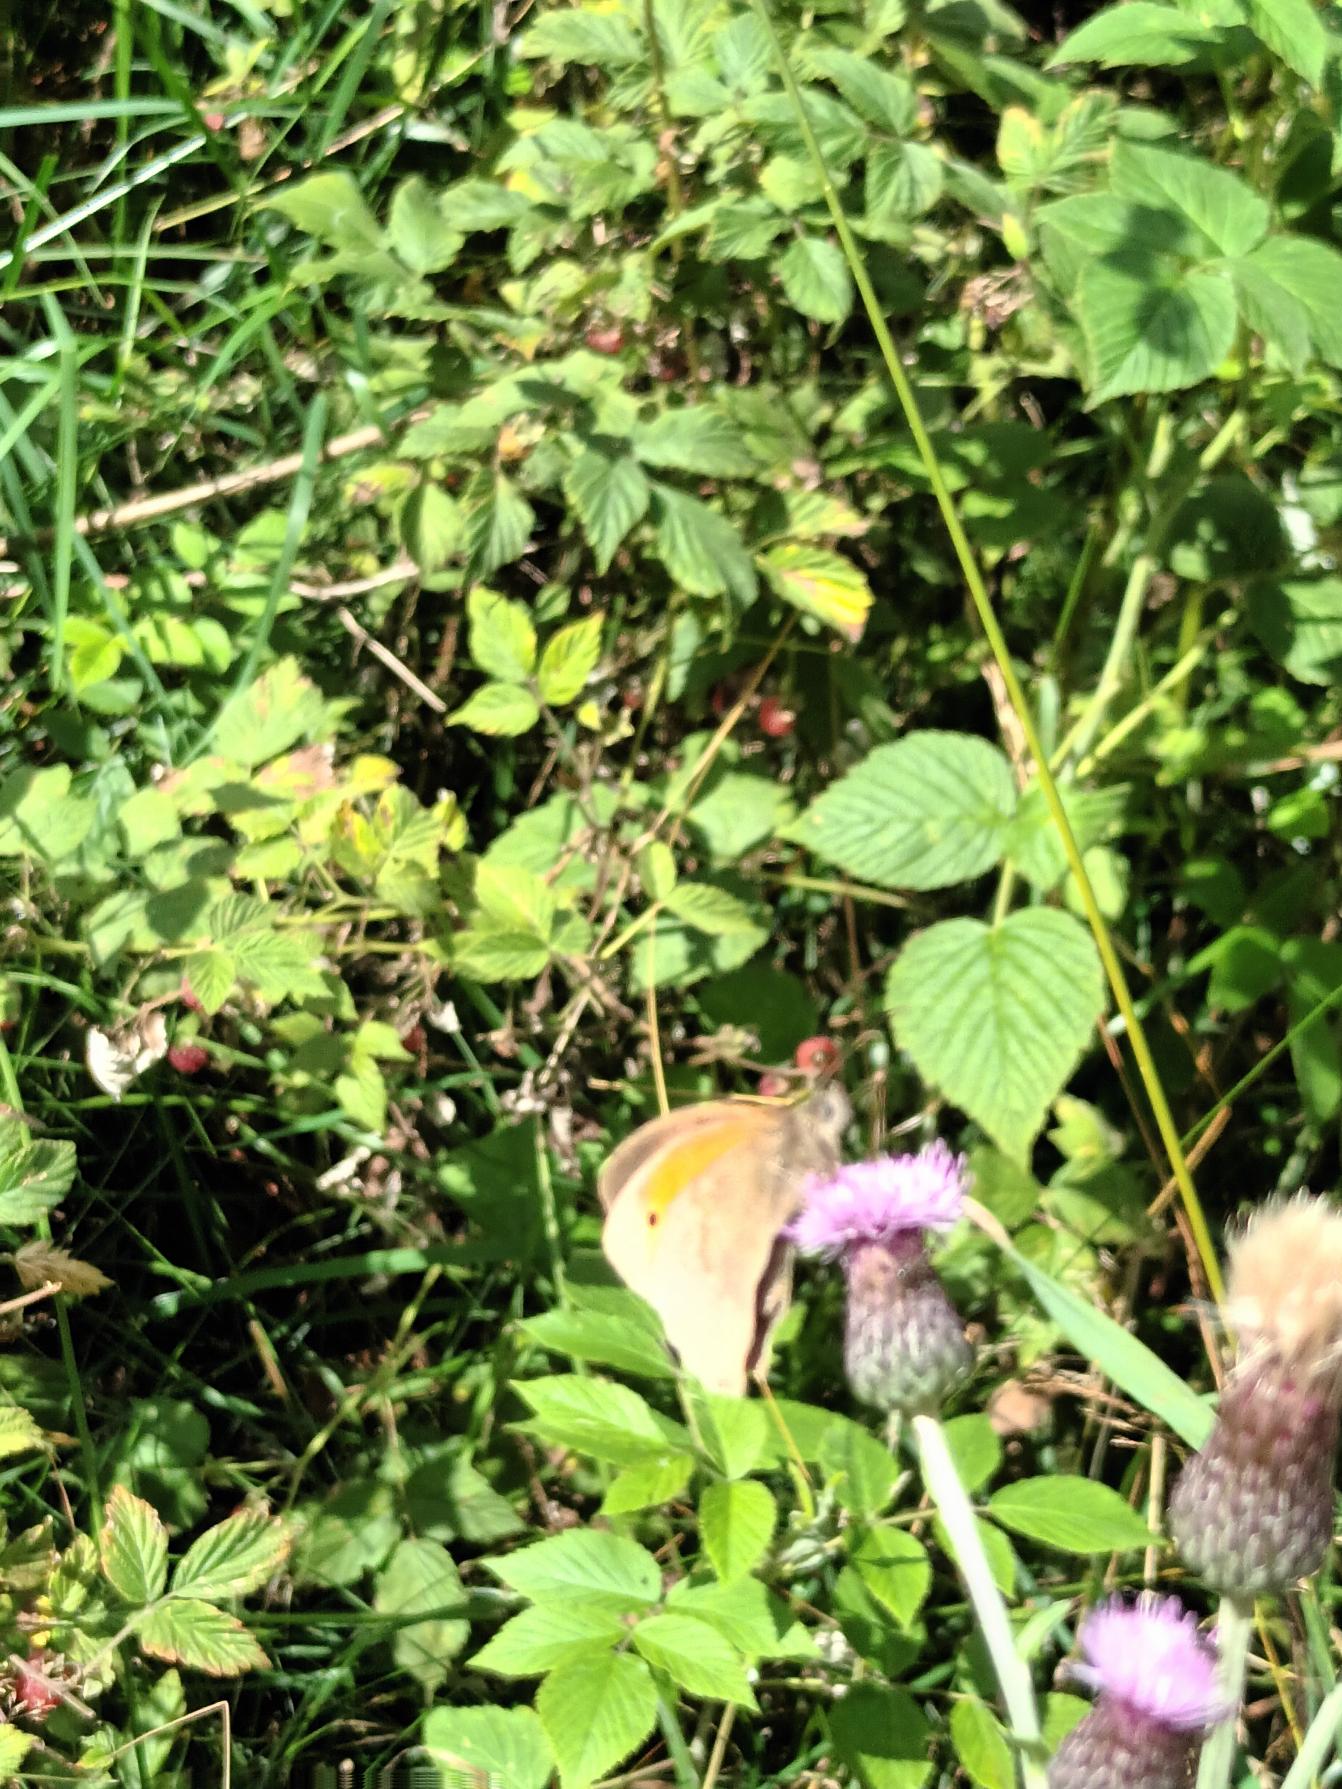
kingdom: Animalia
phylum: Arthropoda
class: Insecta
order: Lepidoptera
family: Nymphalidae
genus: Maniola
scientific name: Maniola jurtina
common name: Græsrandøje
